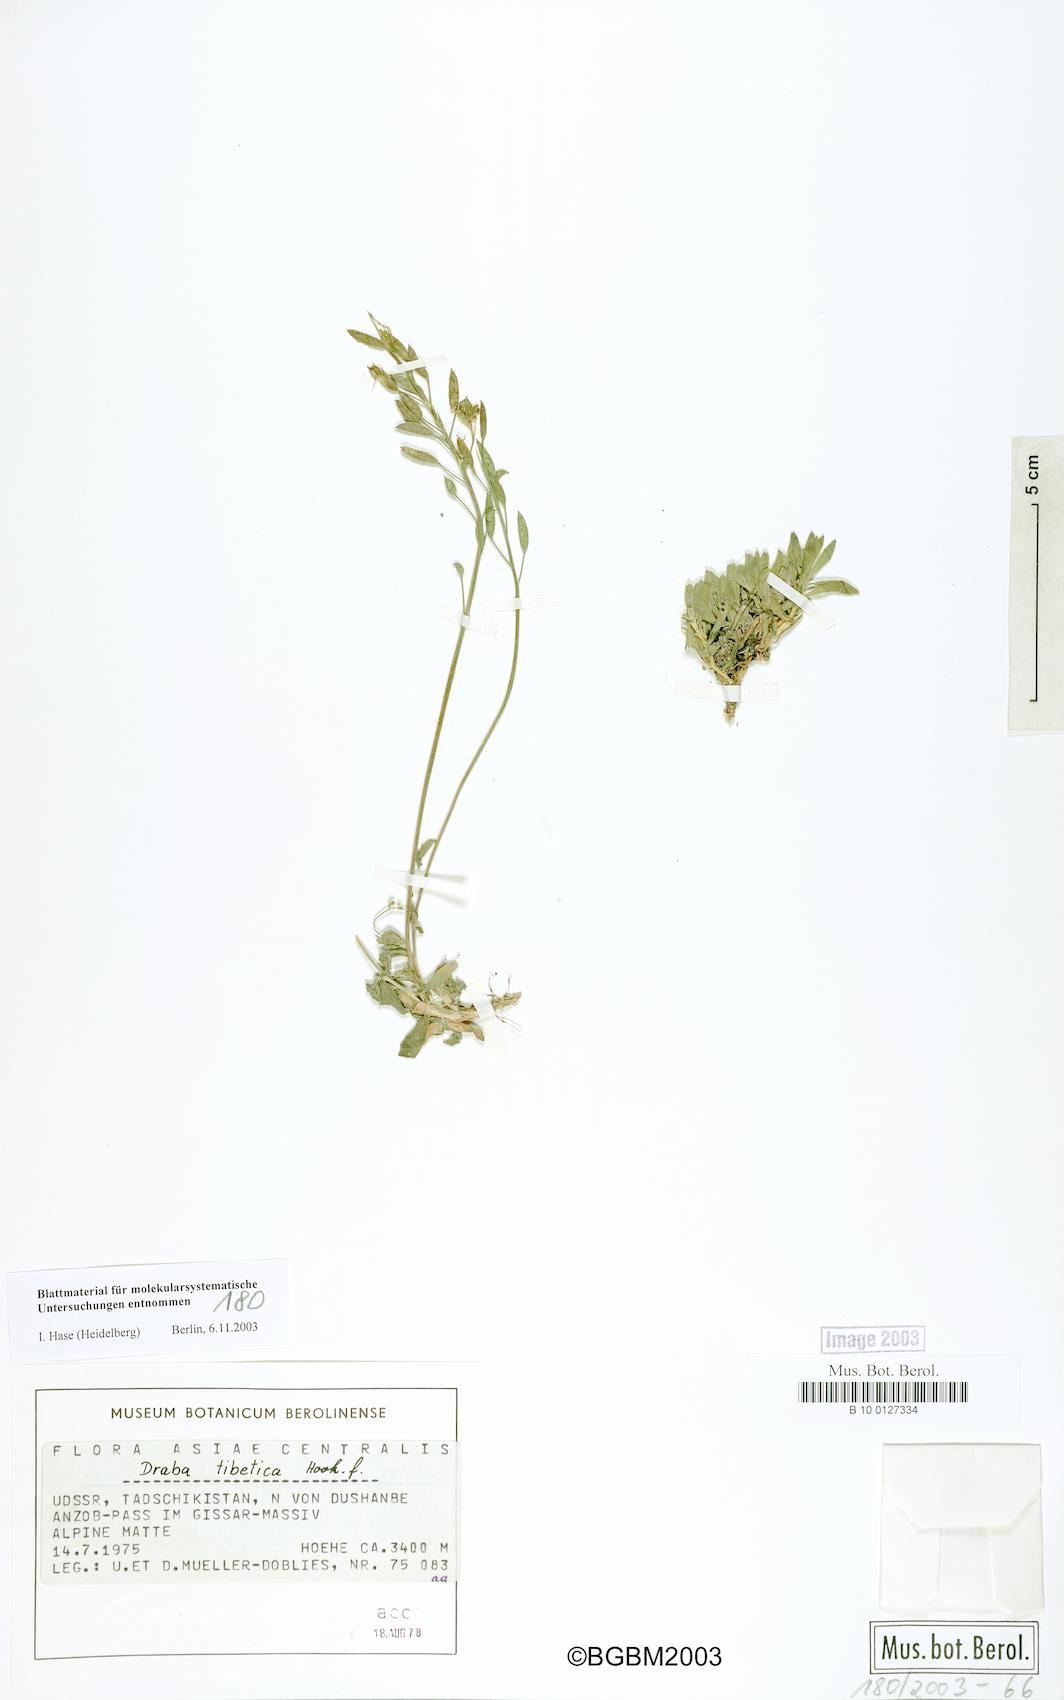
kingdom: Plantae
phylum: Tracheophyta
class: Magnoliopsida
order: Brassicales
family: Brassicaceae
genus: Draba
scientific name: Draba tibetica
